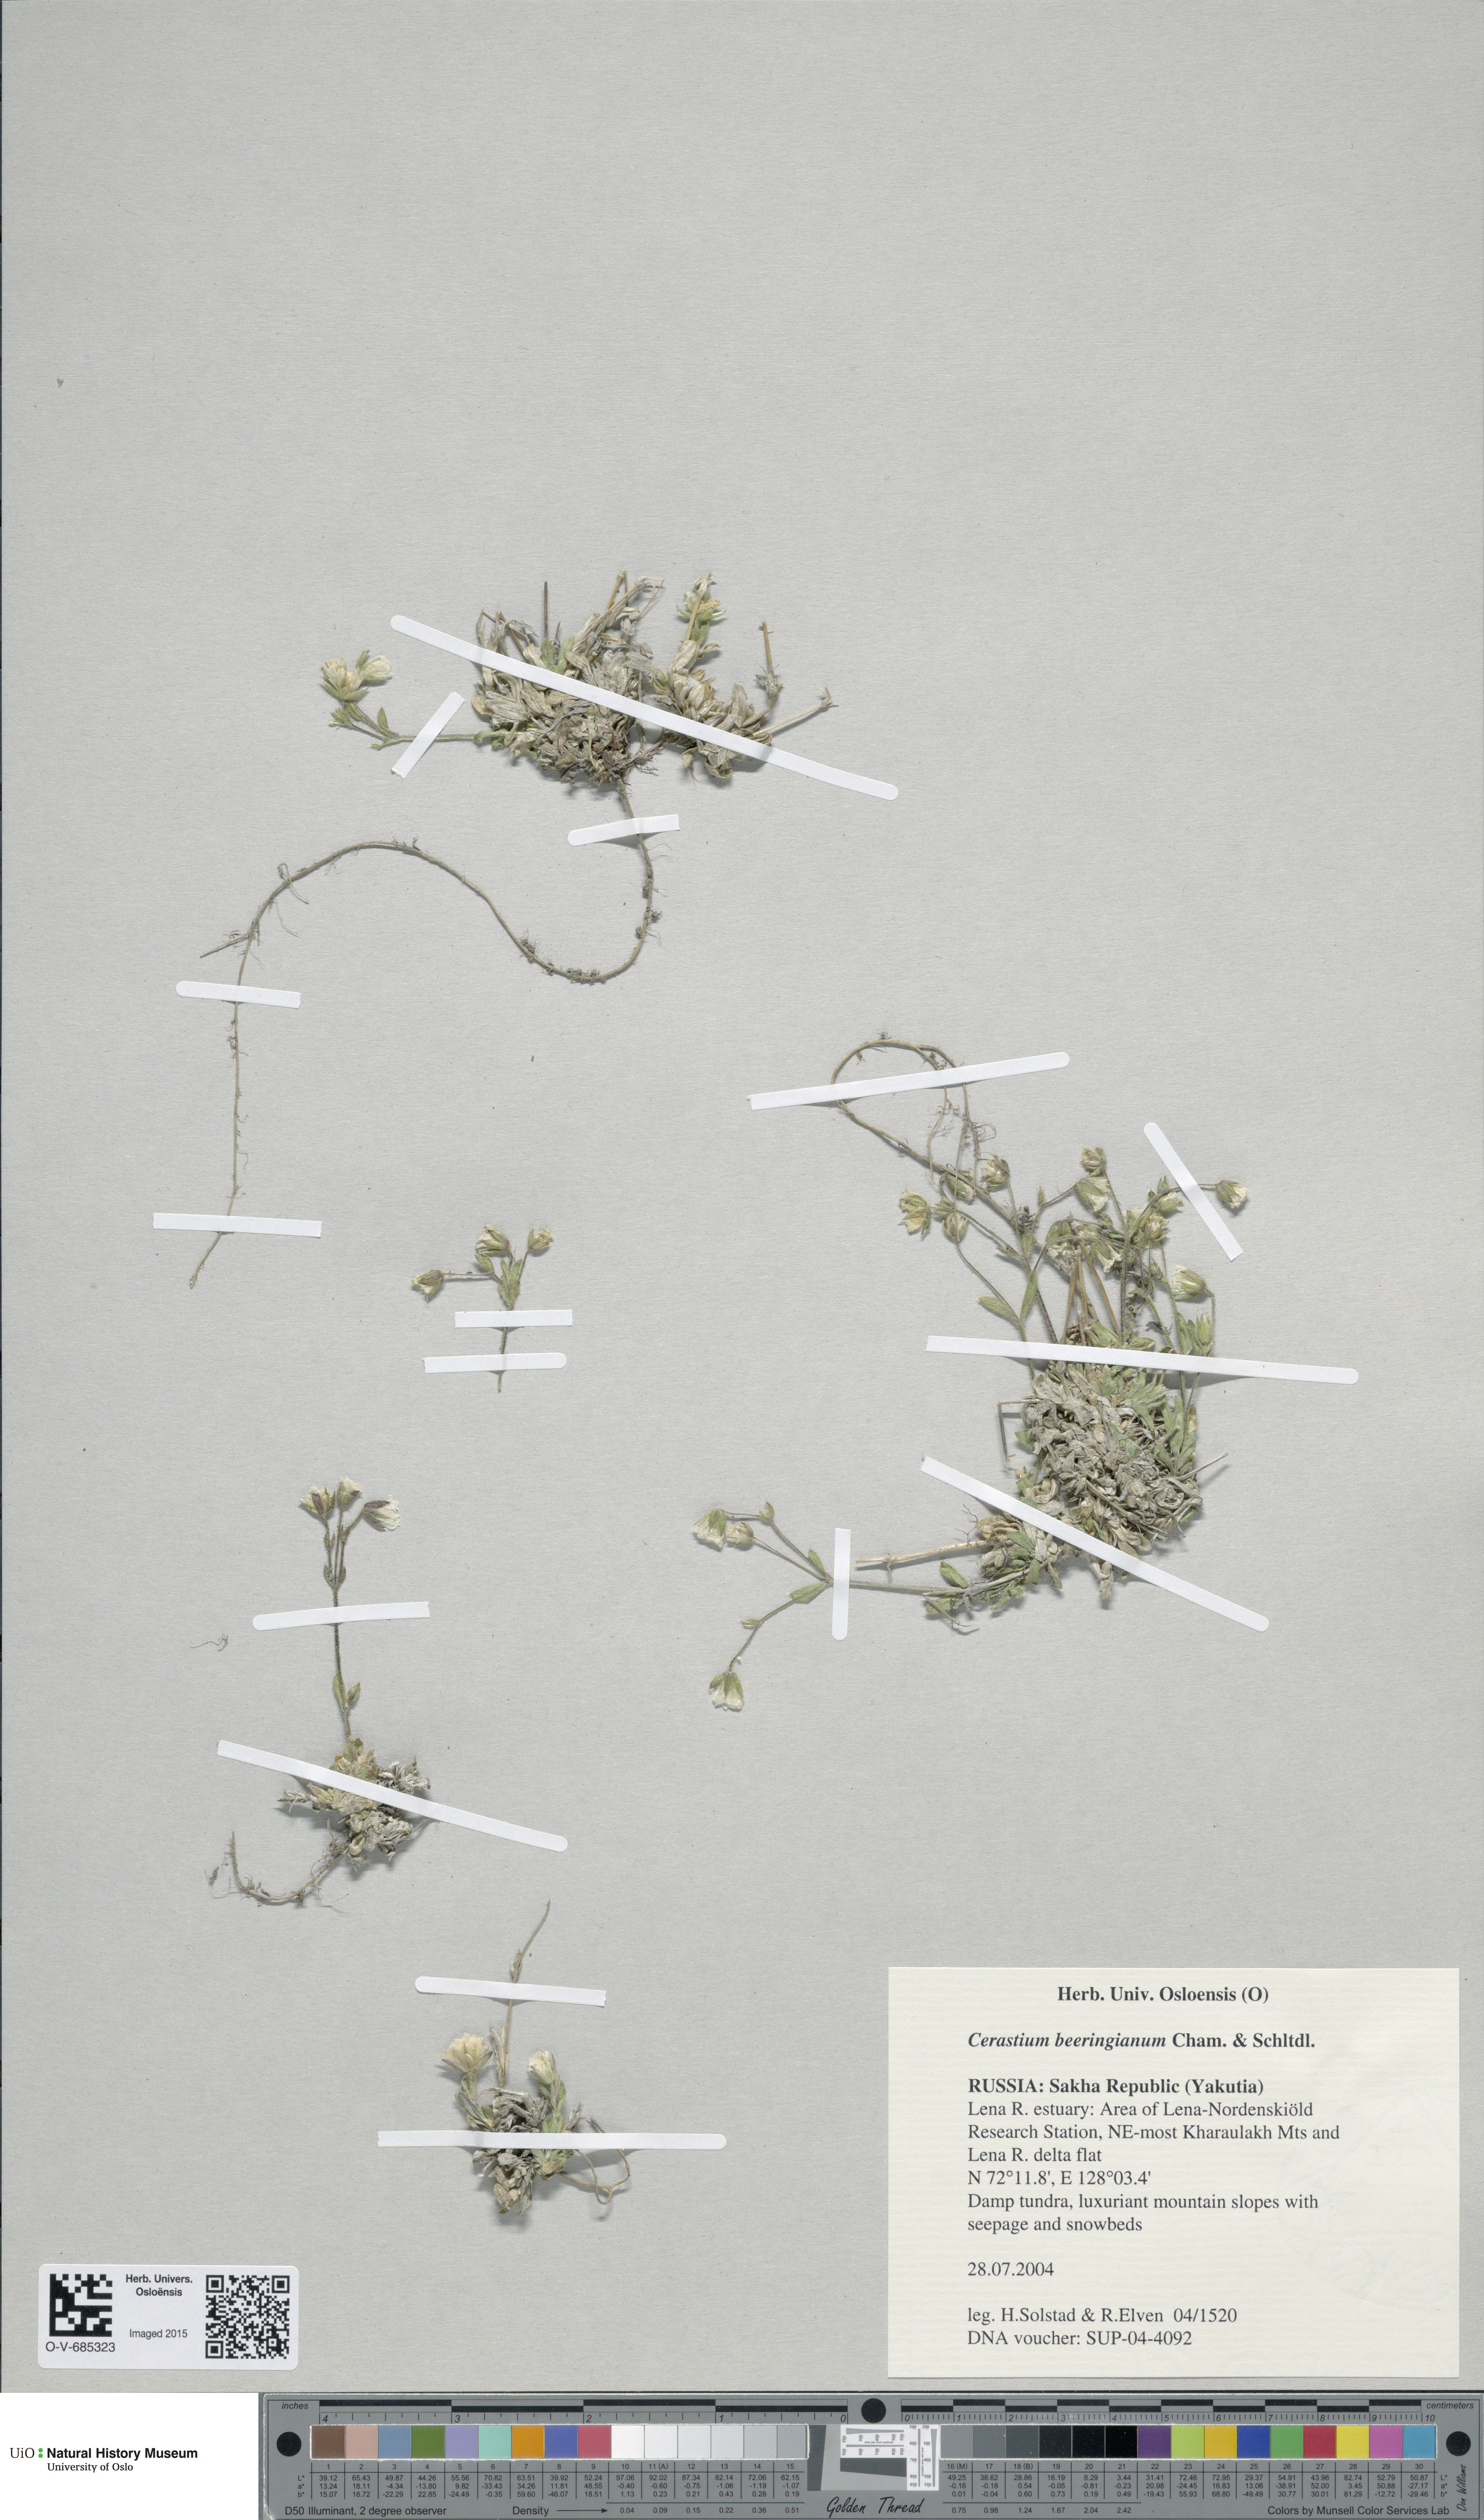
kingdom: Plantae
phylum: Tracheophyta
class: Magnoliopsida
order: Caryophyllales
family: Caryophyllaceae
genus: Cerastium
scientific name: Cerastium beeringianum
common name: Bering mouse-ear chickweed
